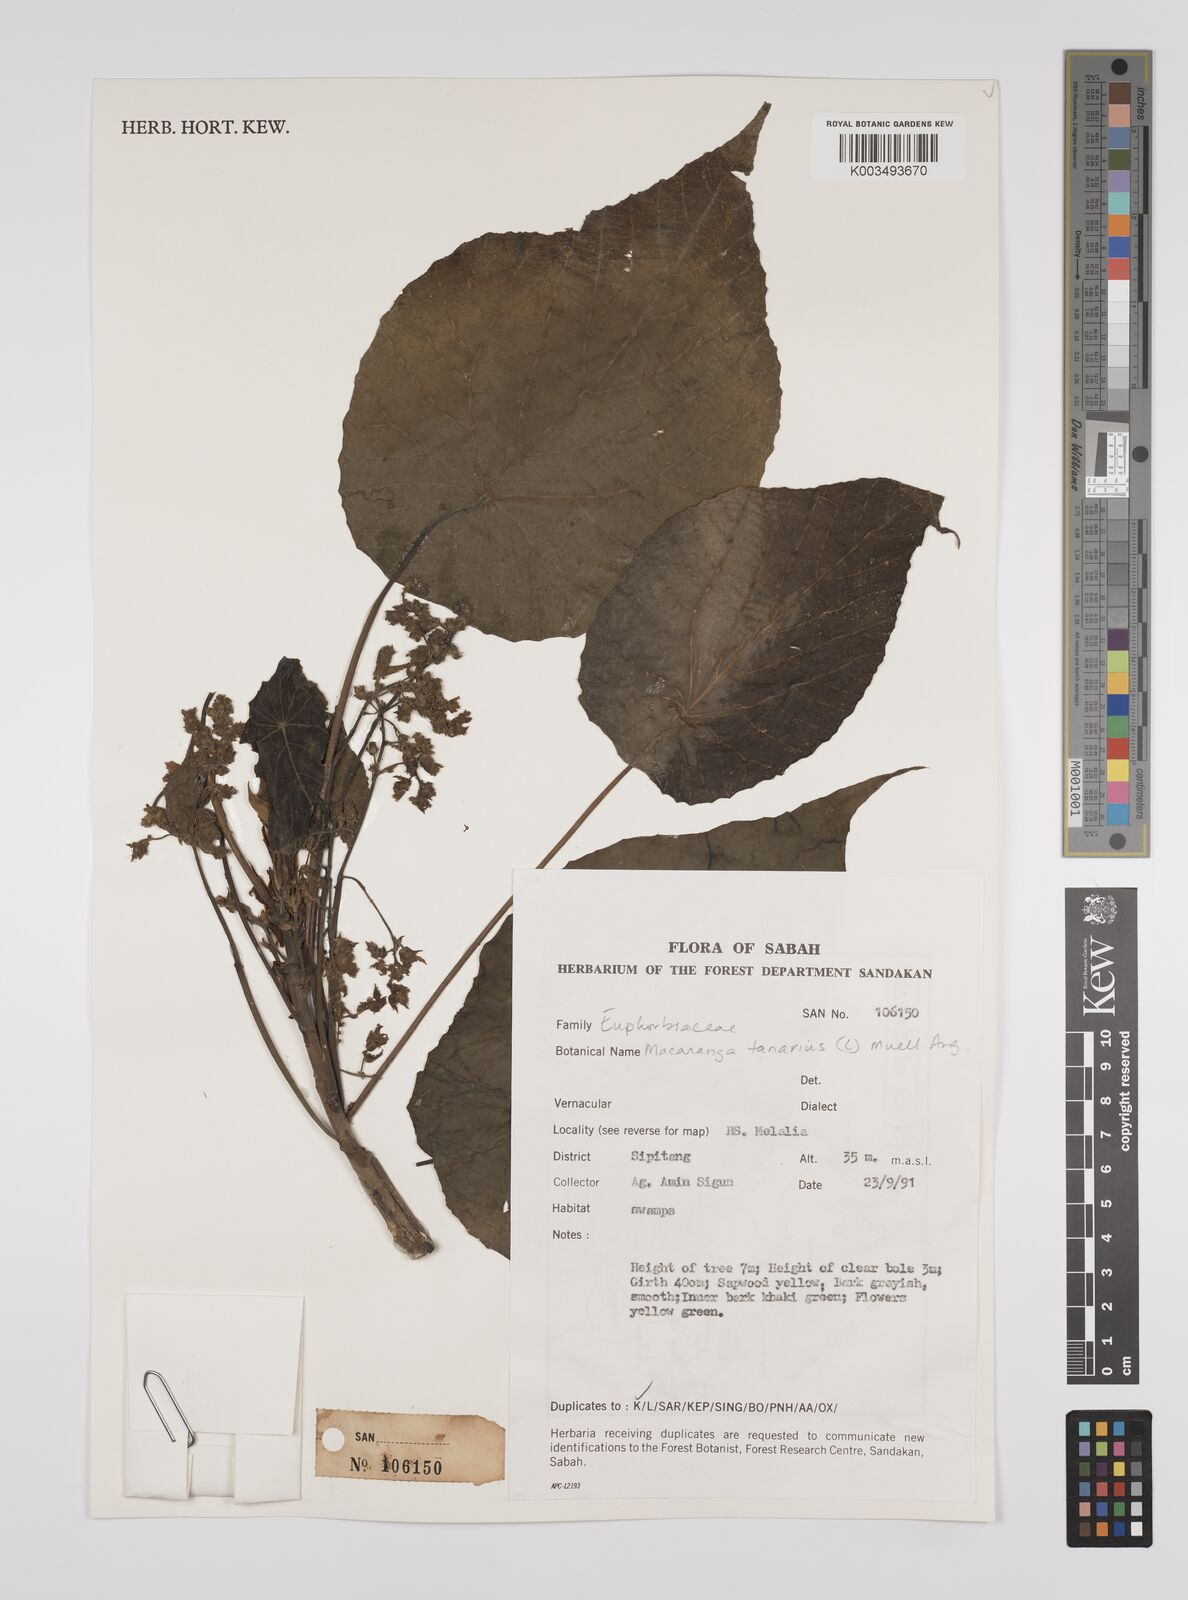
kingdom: Plantae
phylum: Tracheophyta
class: Magnoliopsida
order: Malpighiales
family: Euphorbiaceae
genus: Macaranga
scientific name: Macaranga tanarius
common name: Parasol leaf tree
